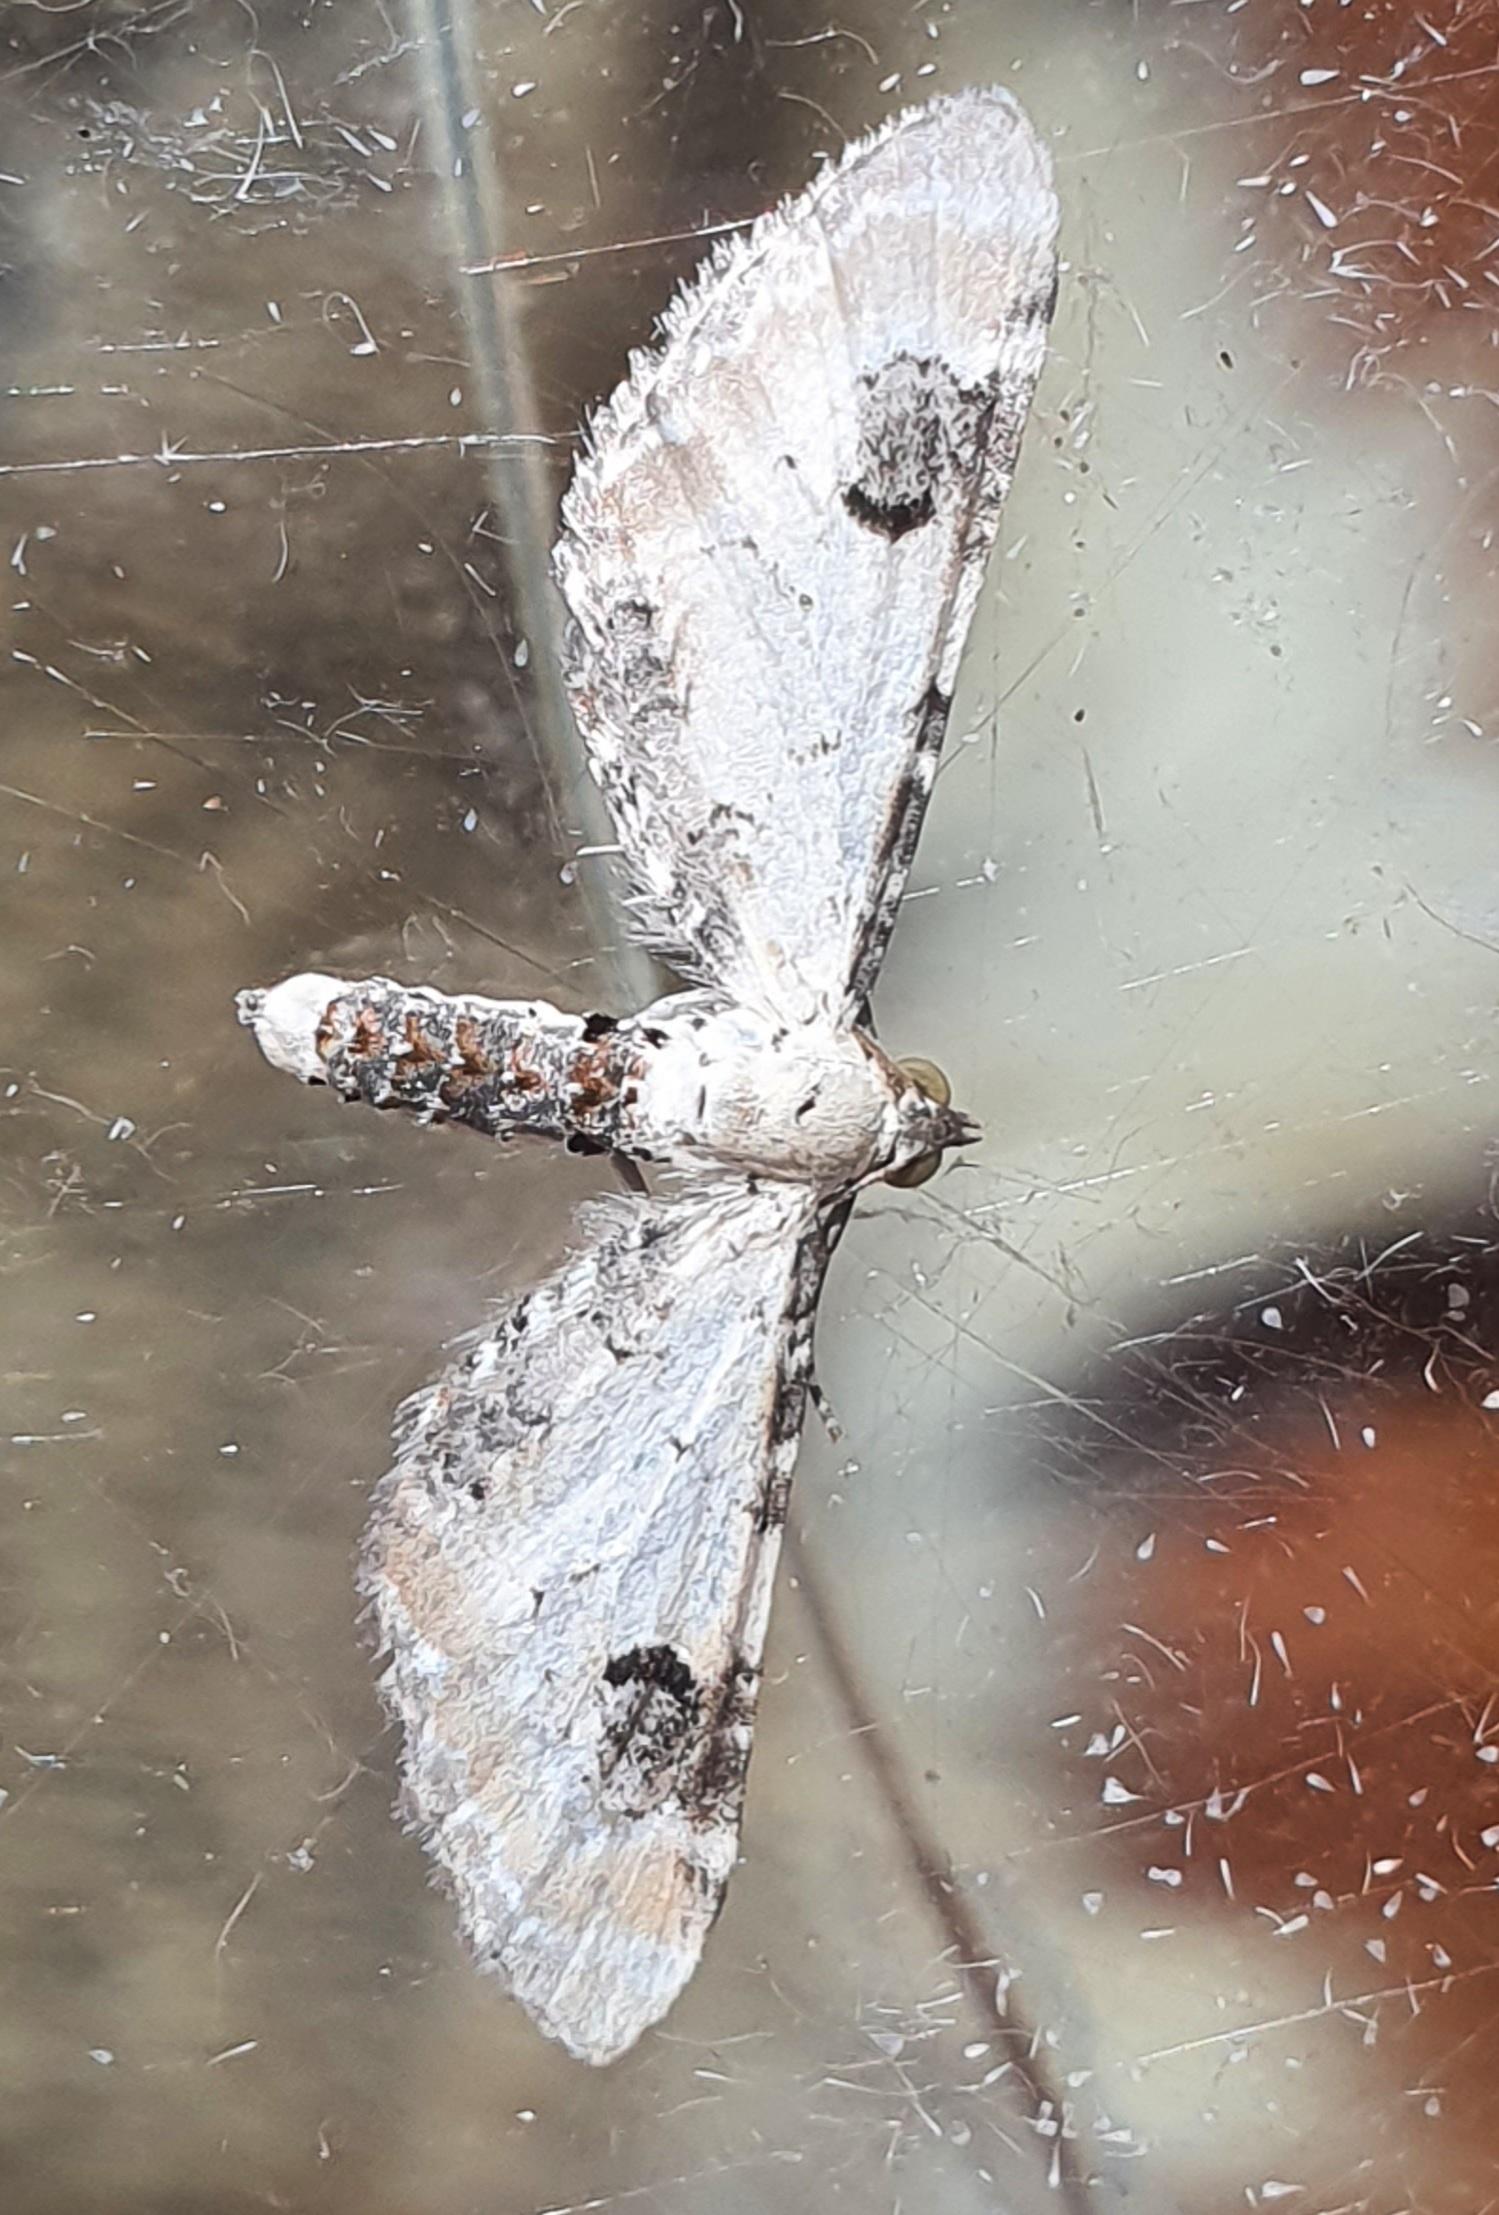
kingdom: Animalia
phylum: Arthropoda
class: Insecta
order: Lepidoptera
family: Geometridae
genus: Eupithecia
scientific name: Eupithecia centaureata
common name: Hvid dværgmåler
